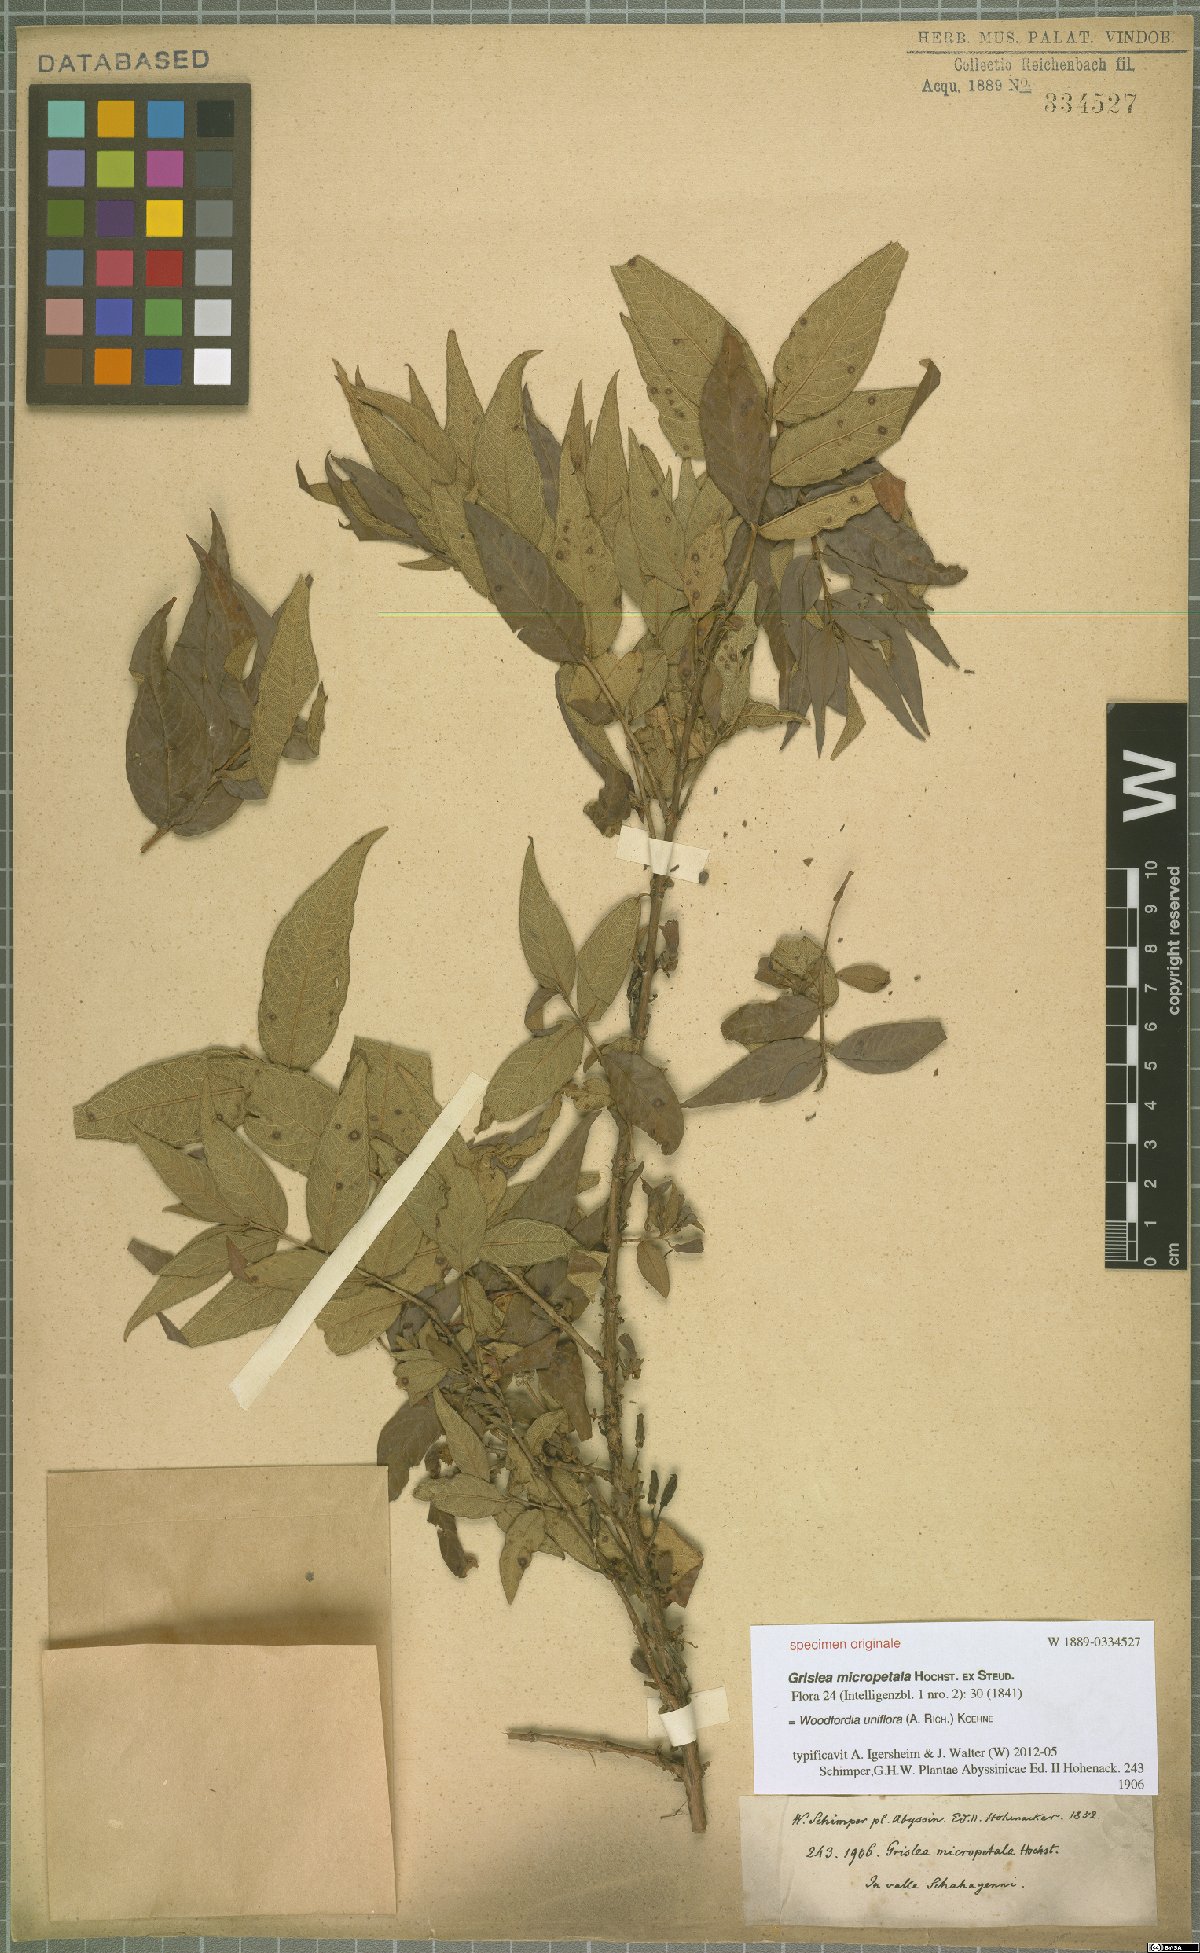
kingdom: Plantae
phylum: Tracheophyta
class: Magnoliopsida
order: Myrtales
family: Lythraceae
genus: Woodfordia
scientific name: Woodfordia uniflora
